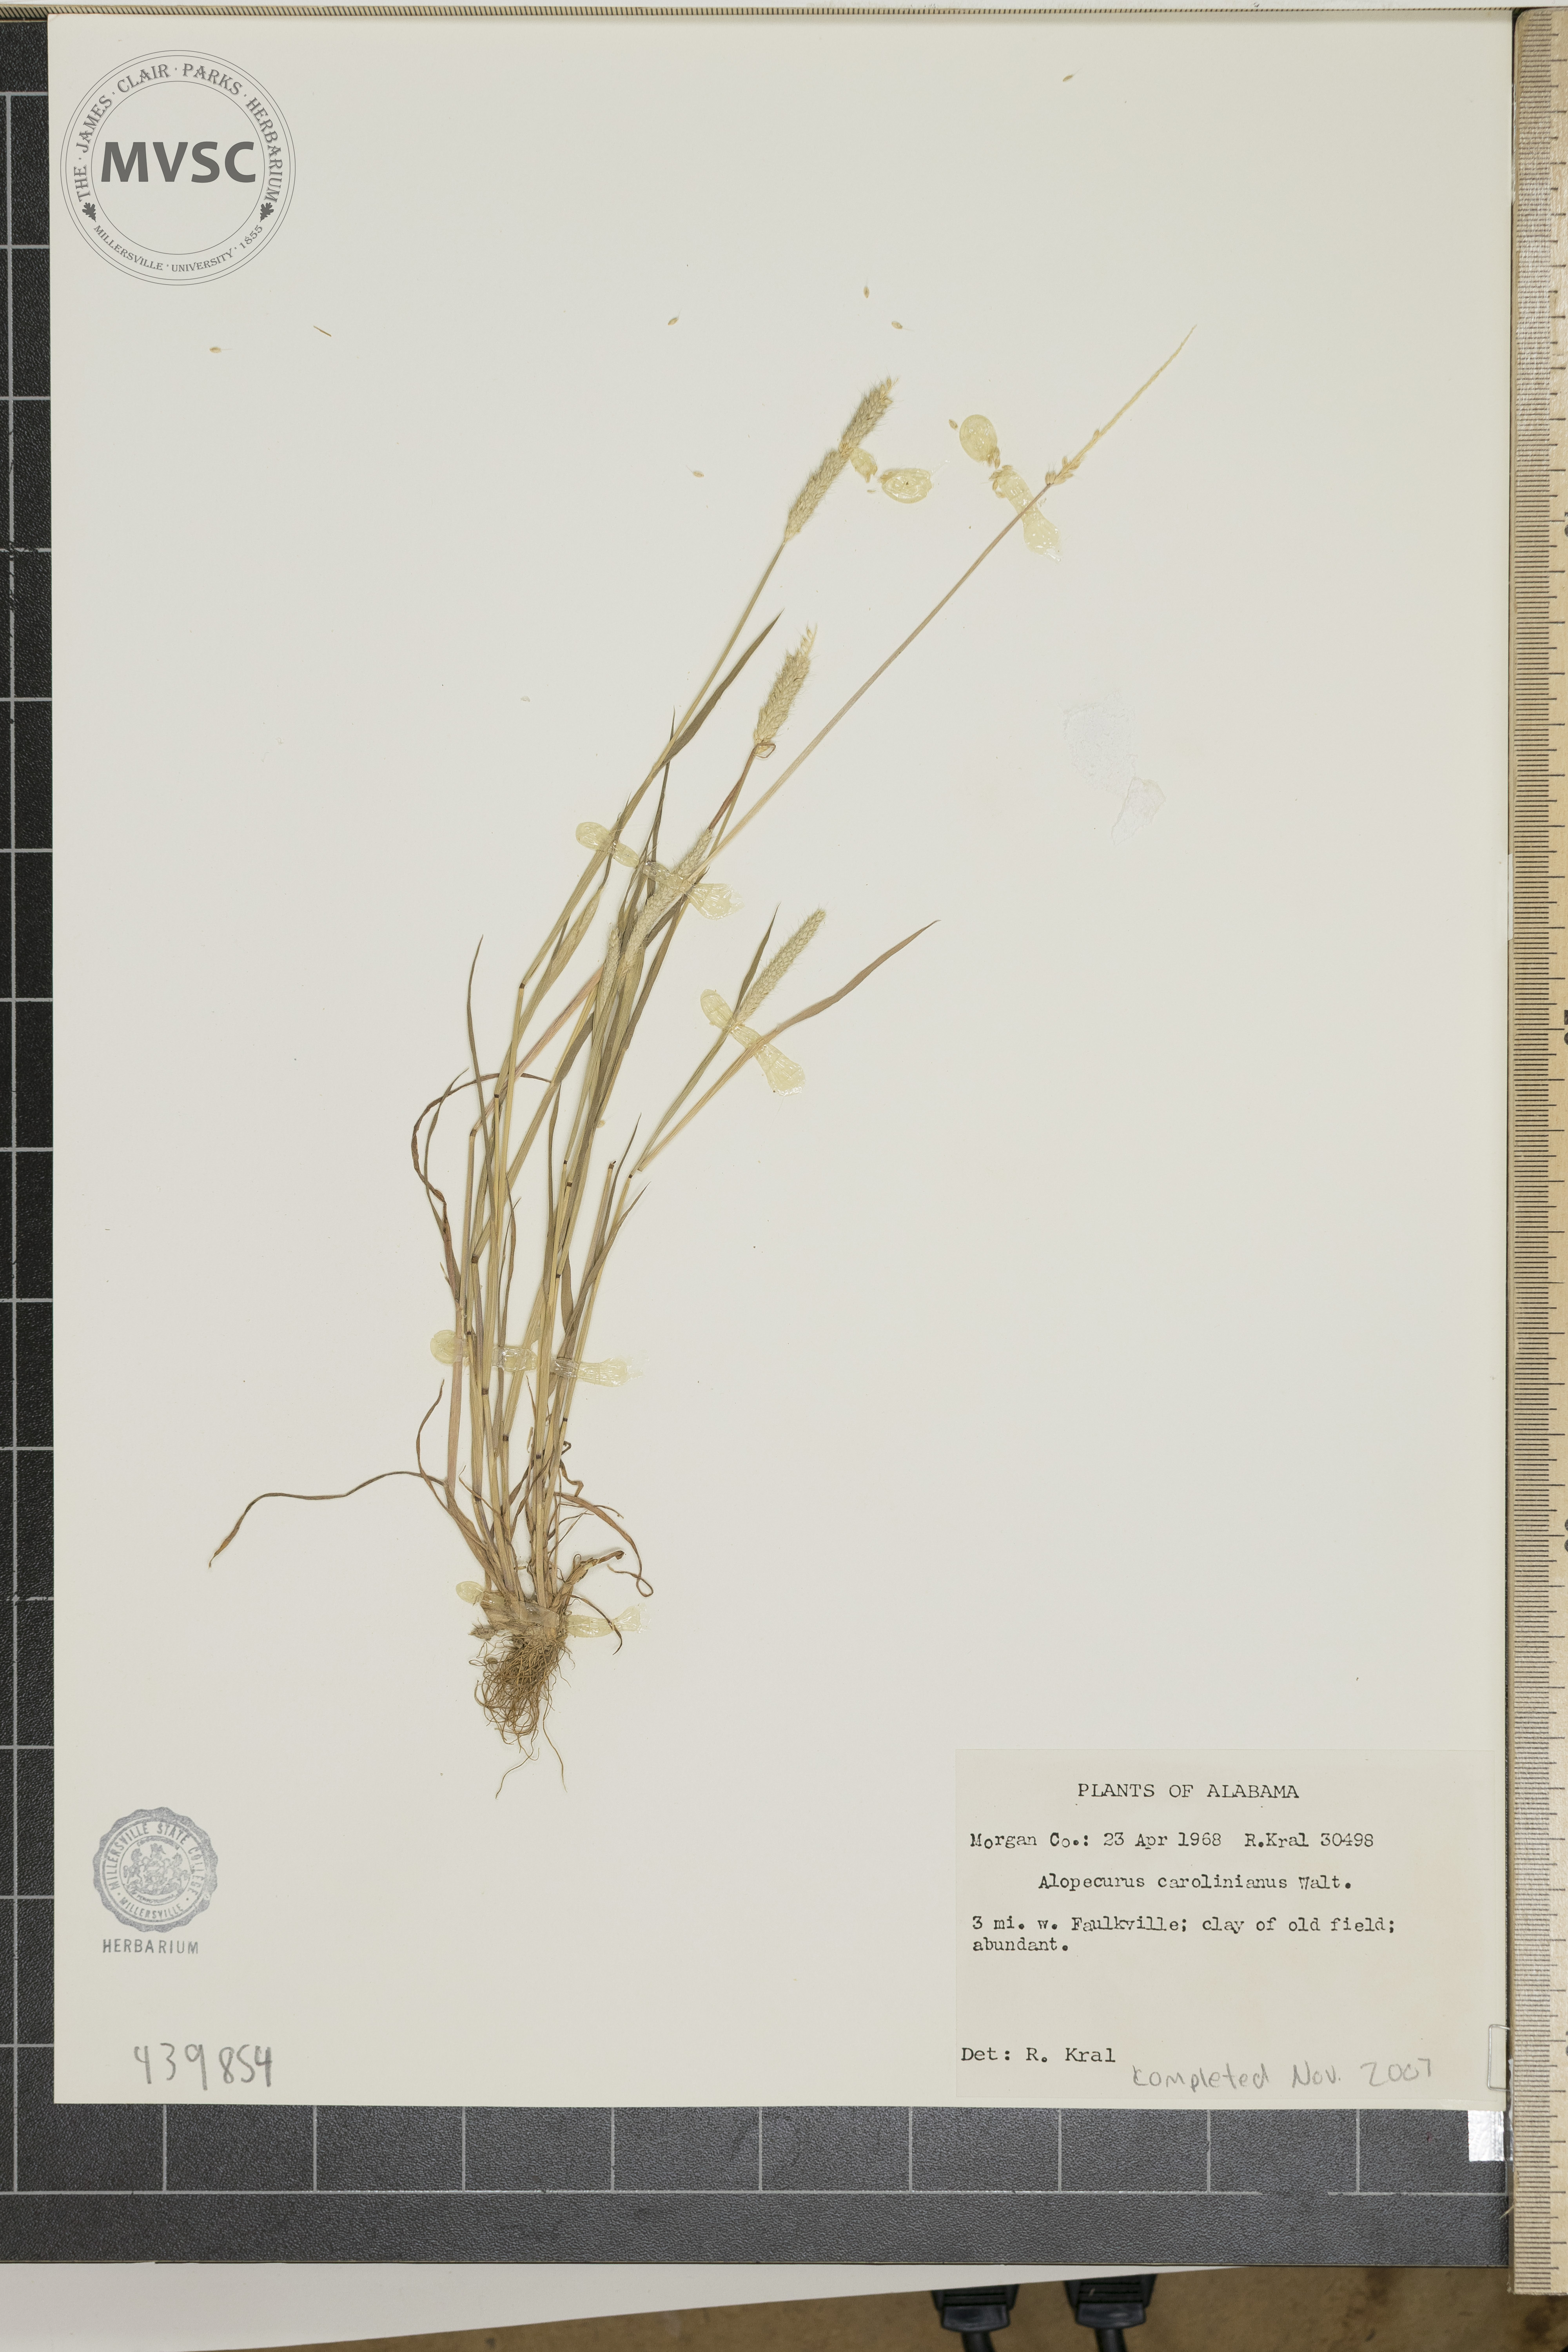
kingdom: Plantae
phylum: Tracheophyta
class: Liliopsida
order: Poales
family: Poaceae
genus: Alopecurus
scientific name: Alopecurus carolinianus
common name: Tufted foxtail
